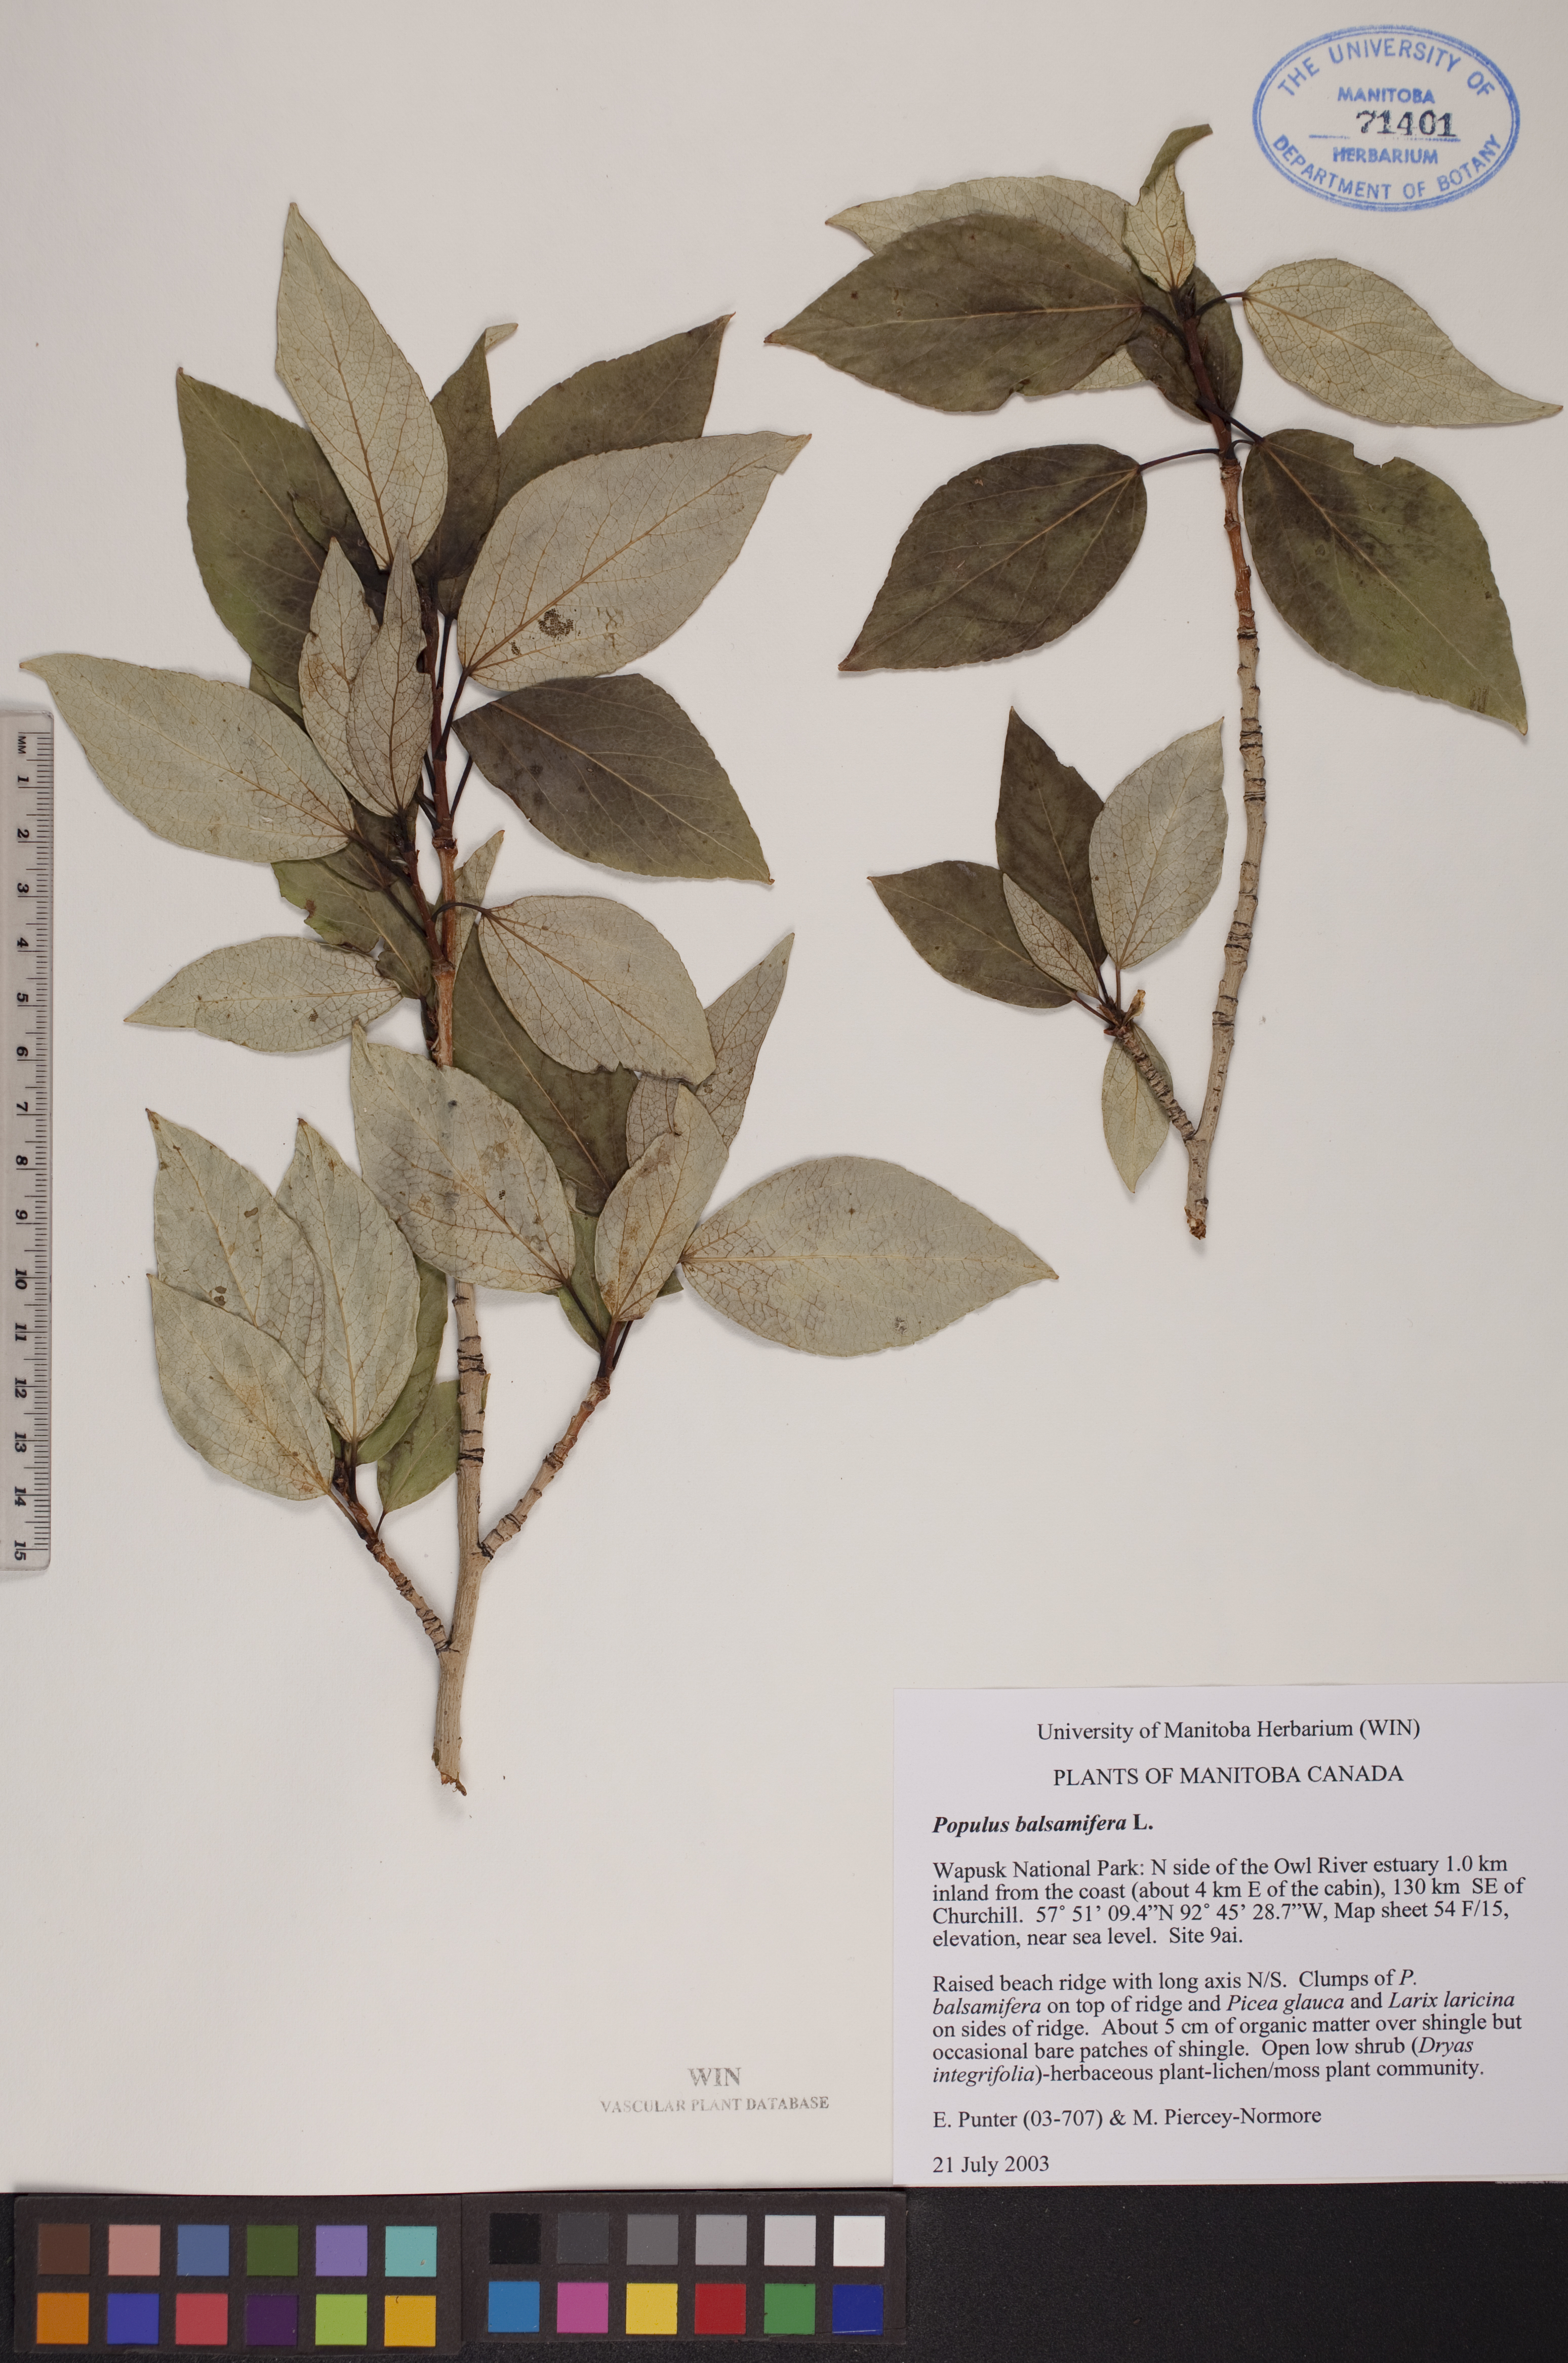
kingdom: Plantae
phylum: Tracheophyta
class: Magnoliopsida
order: Malpighiales
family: Salicaceae
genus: Populus
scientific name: Populus balsamifera
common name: Balsam poplar
